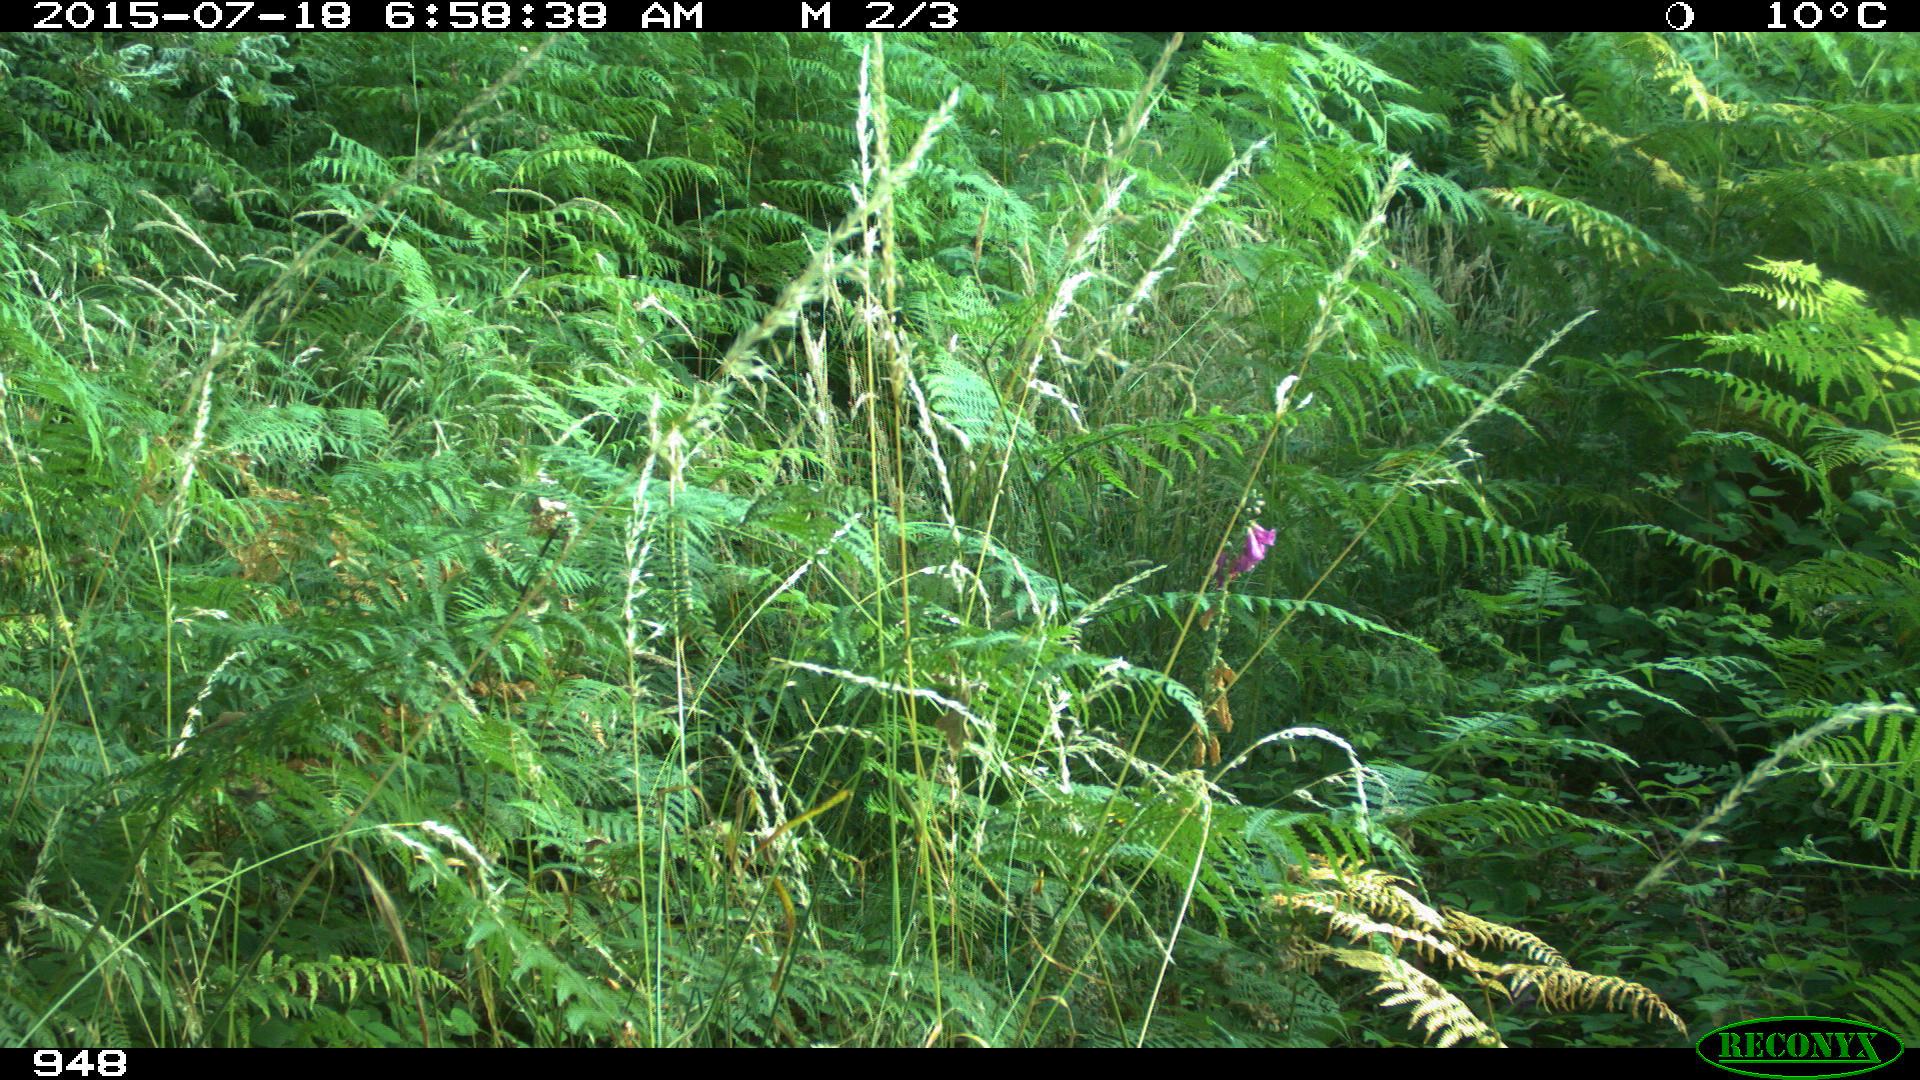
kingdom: Animalia
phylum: Chordata
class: Mammalia
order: Carnivora
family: Canidae
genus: Canis
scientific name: Canis lupus
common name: Gray wolf
